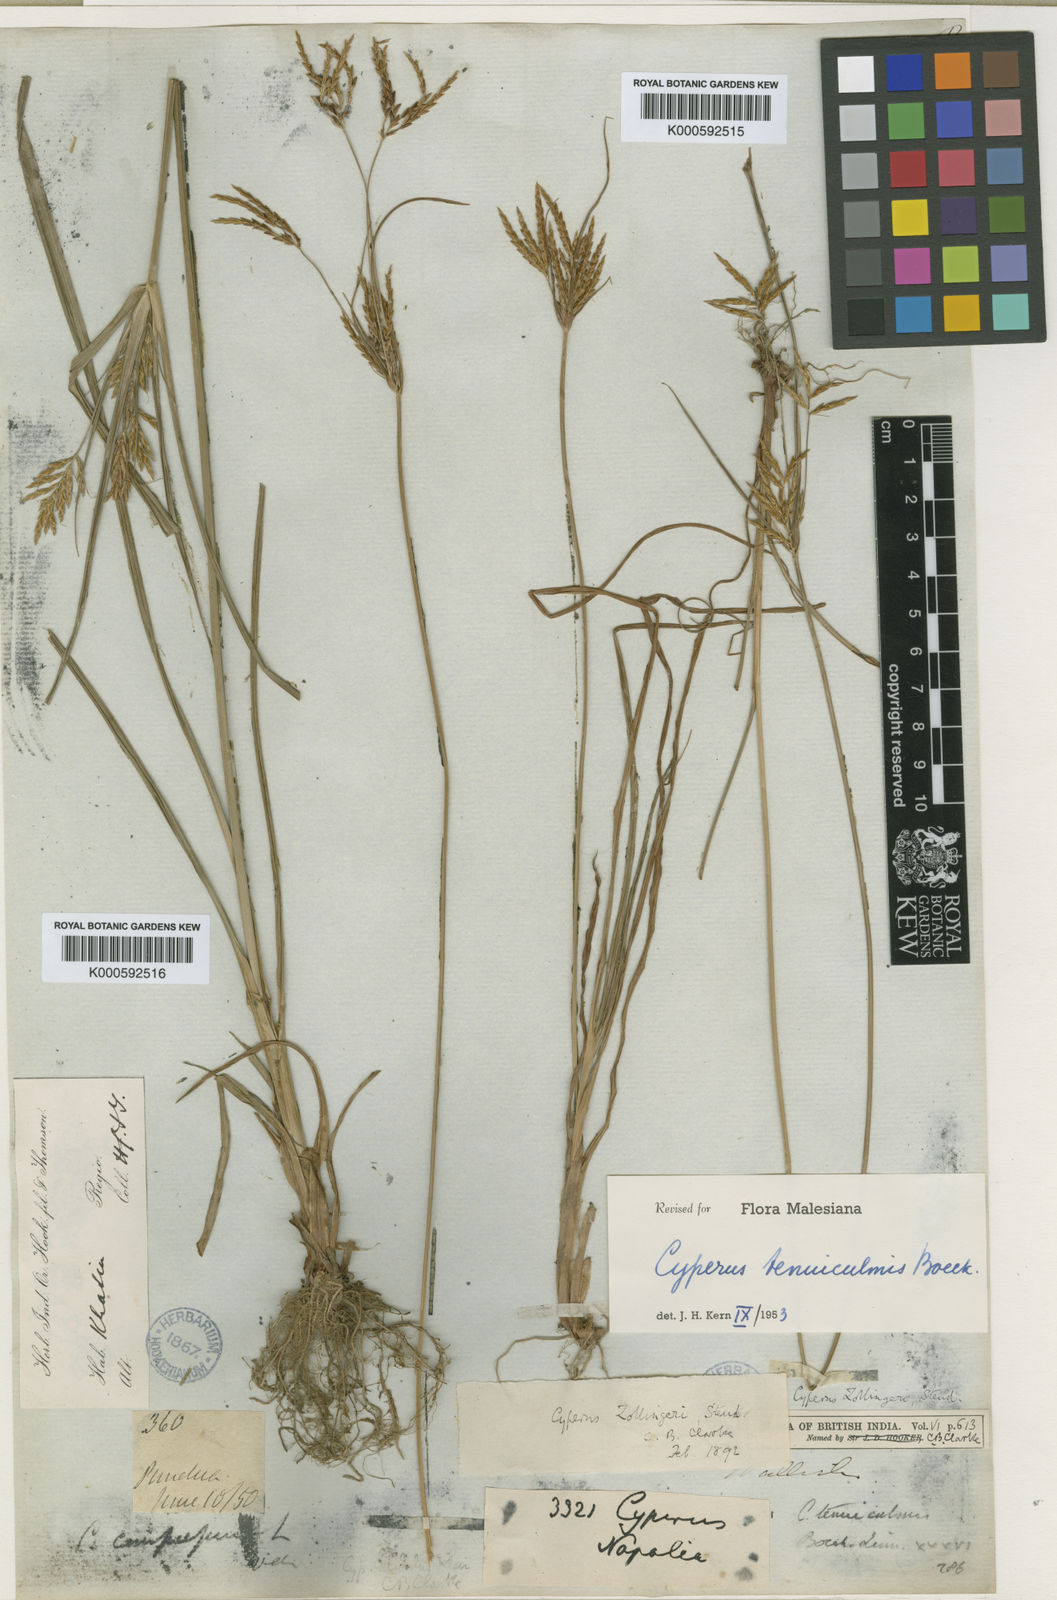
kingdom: Plantae
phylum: Tracheophyta
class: Liliopsida
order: Poales
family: Cyperaceae
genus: Cyperus
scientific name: Cyperus zollingeri
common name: Roadside flatsedge
